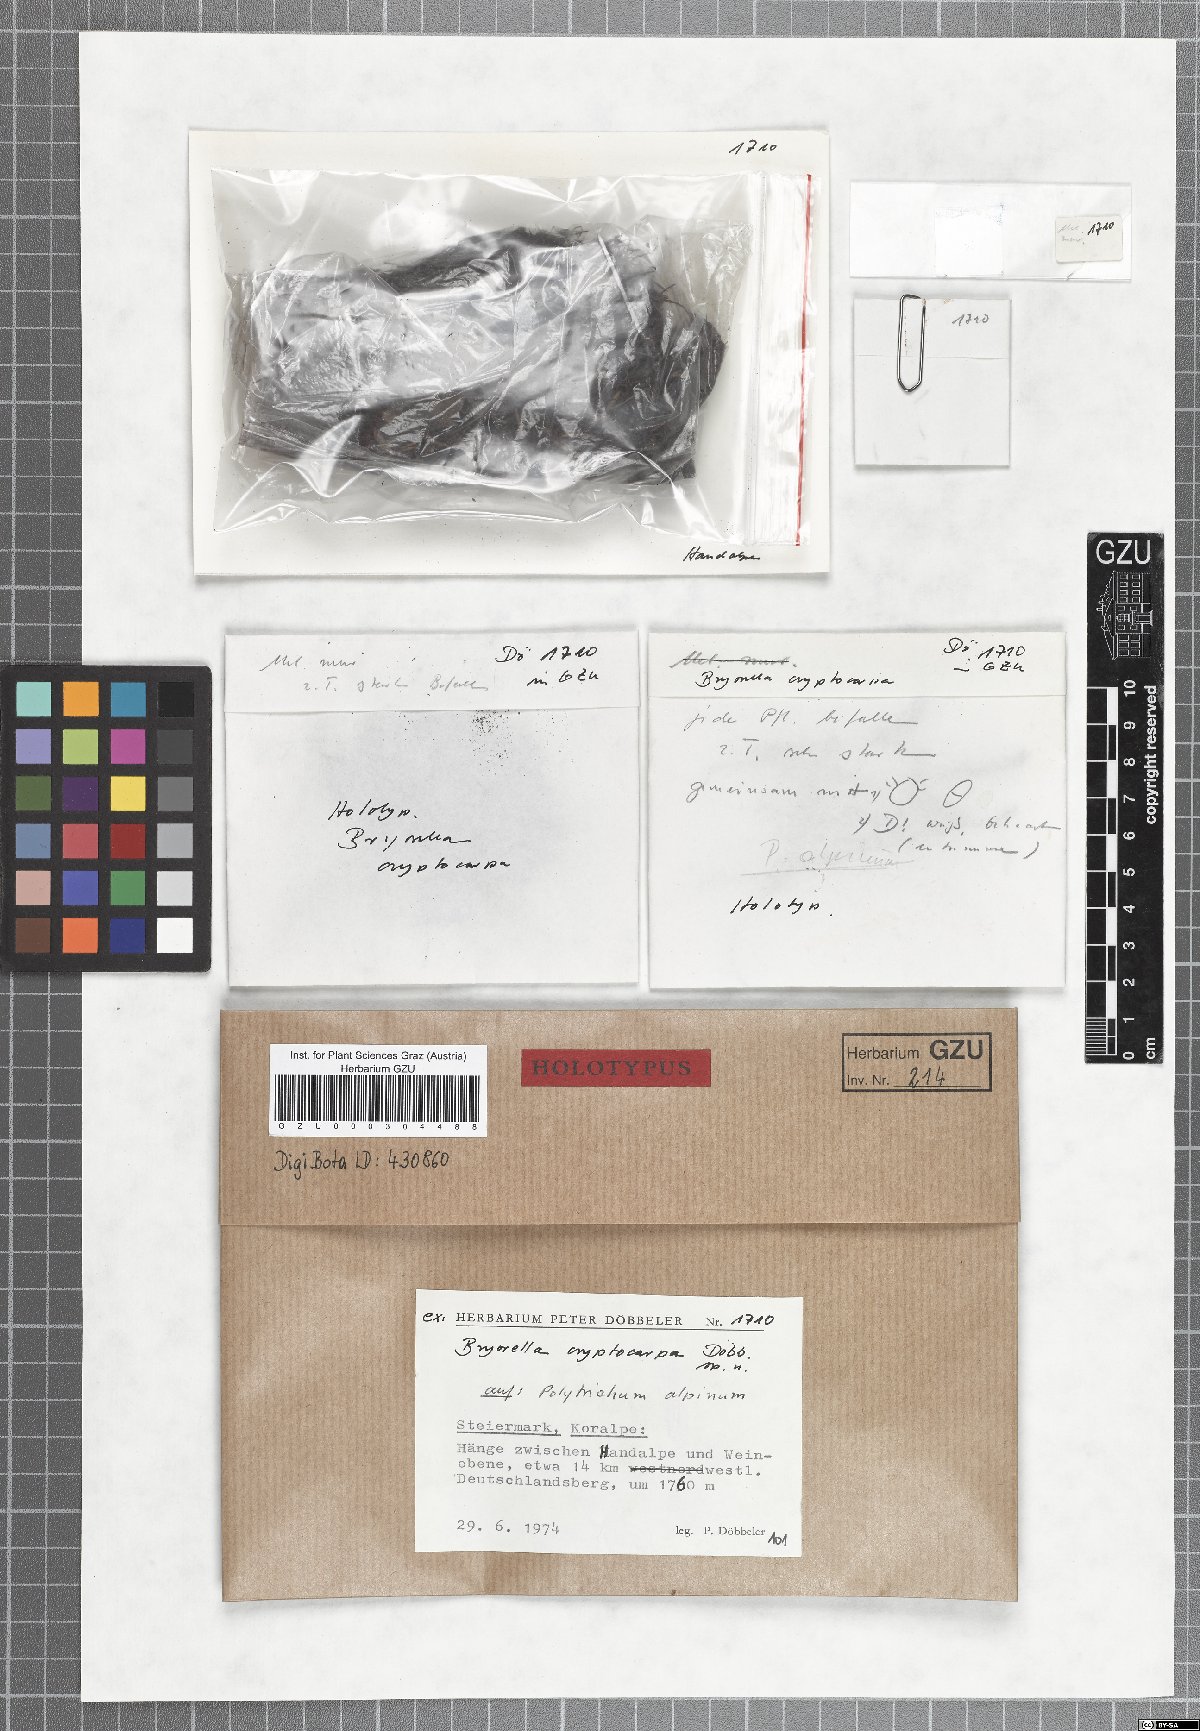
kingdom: Fungi
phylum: Ascomycota
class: Dothideomycetes
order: Dothideales
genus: Bryorella
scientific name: Bryorella cryptocarpa
